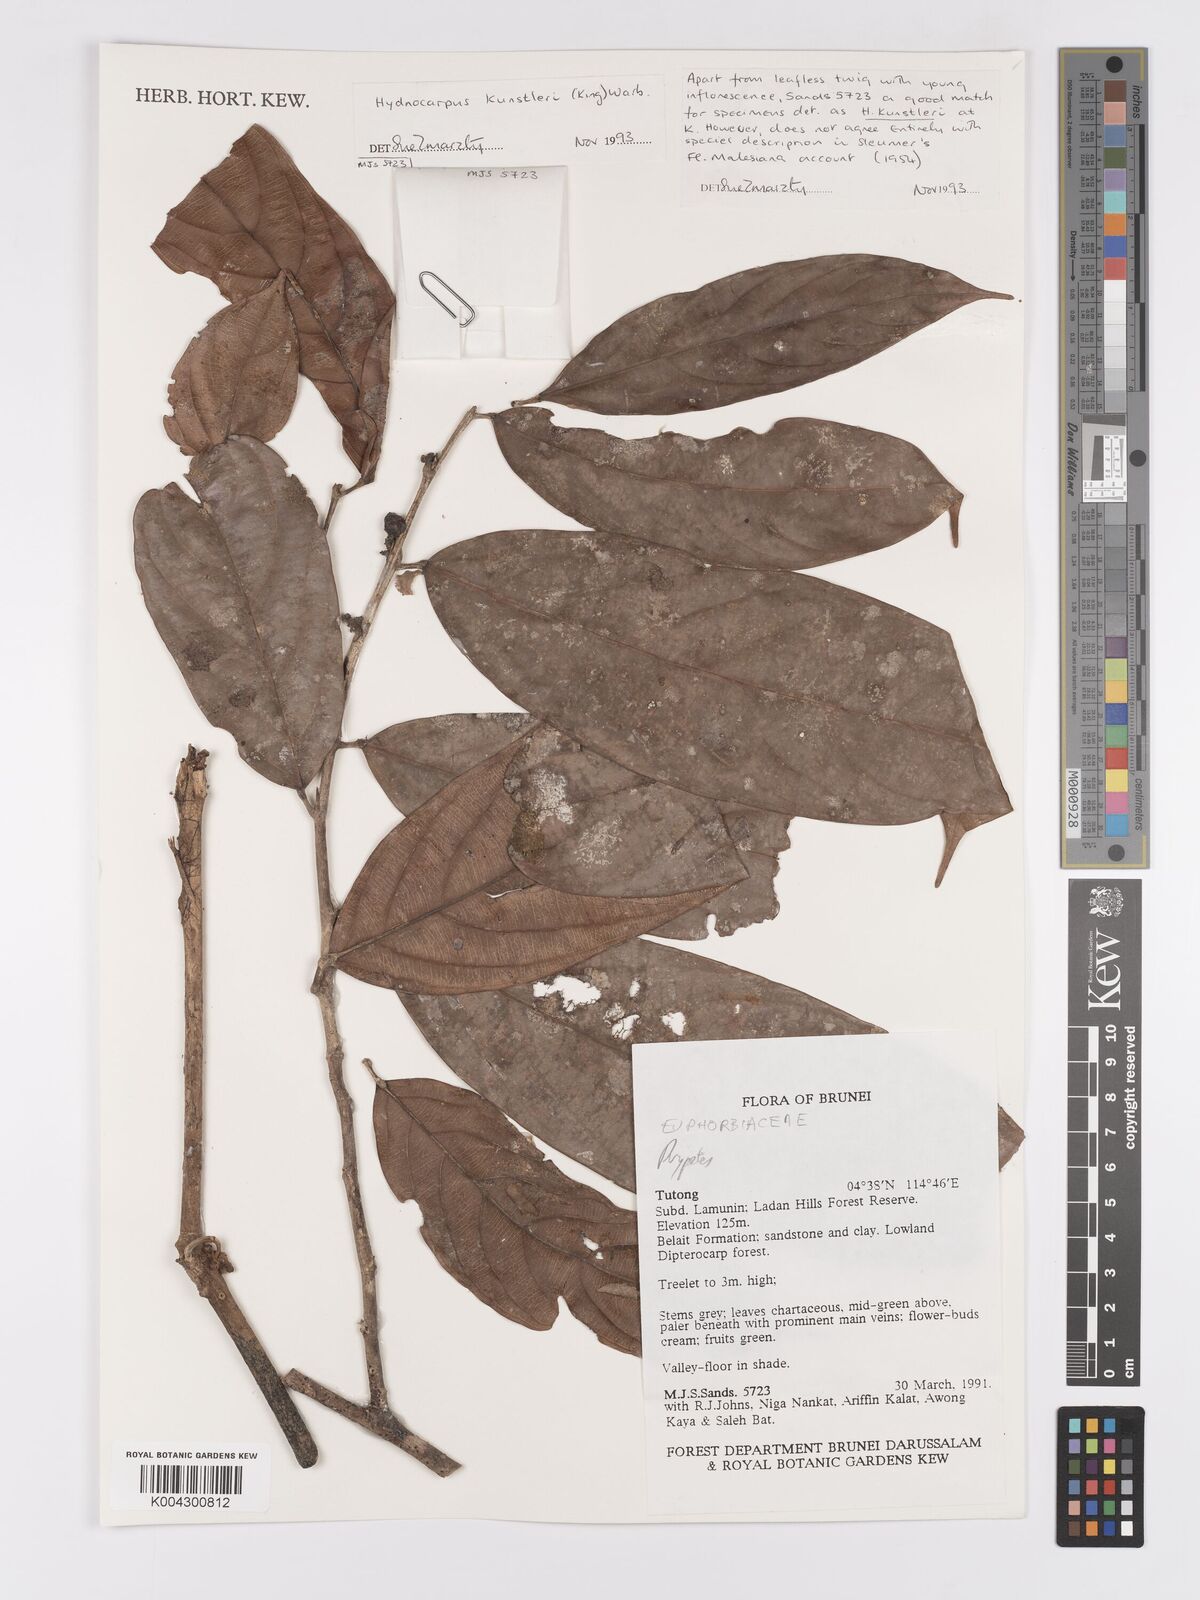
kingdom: Plantae
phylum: Tracheophyta
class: Magnoliopsida
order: Malpighiales
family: Achariaceae
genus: Hydnocarpus
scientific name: Hydnocarpus kunstleri
